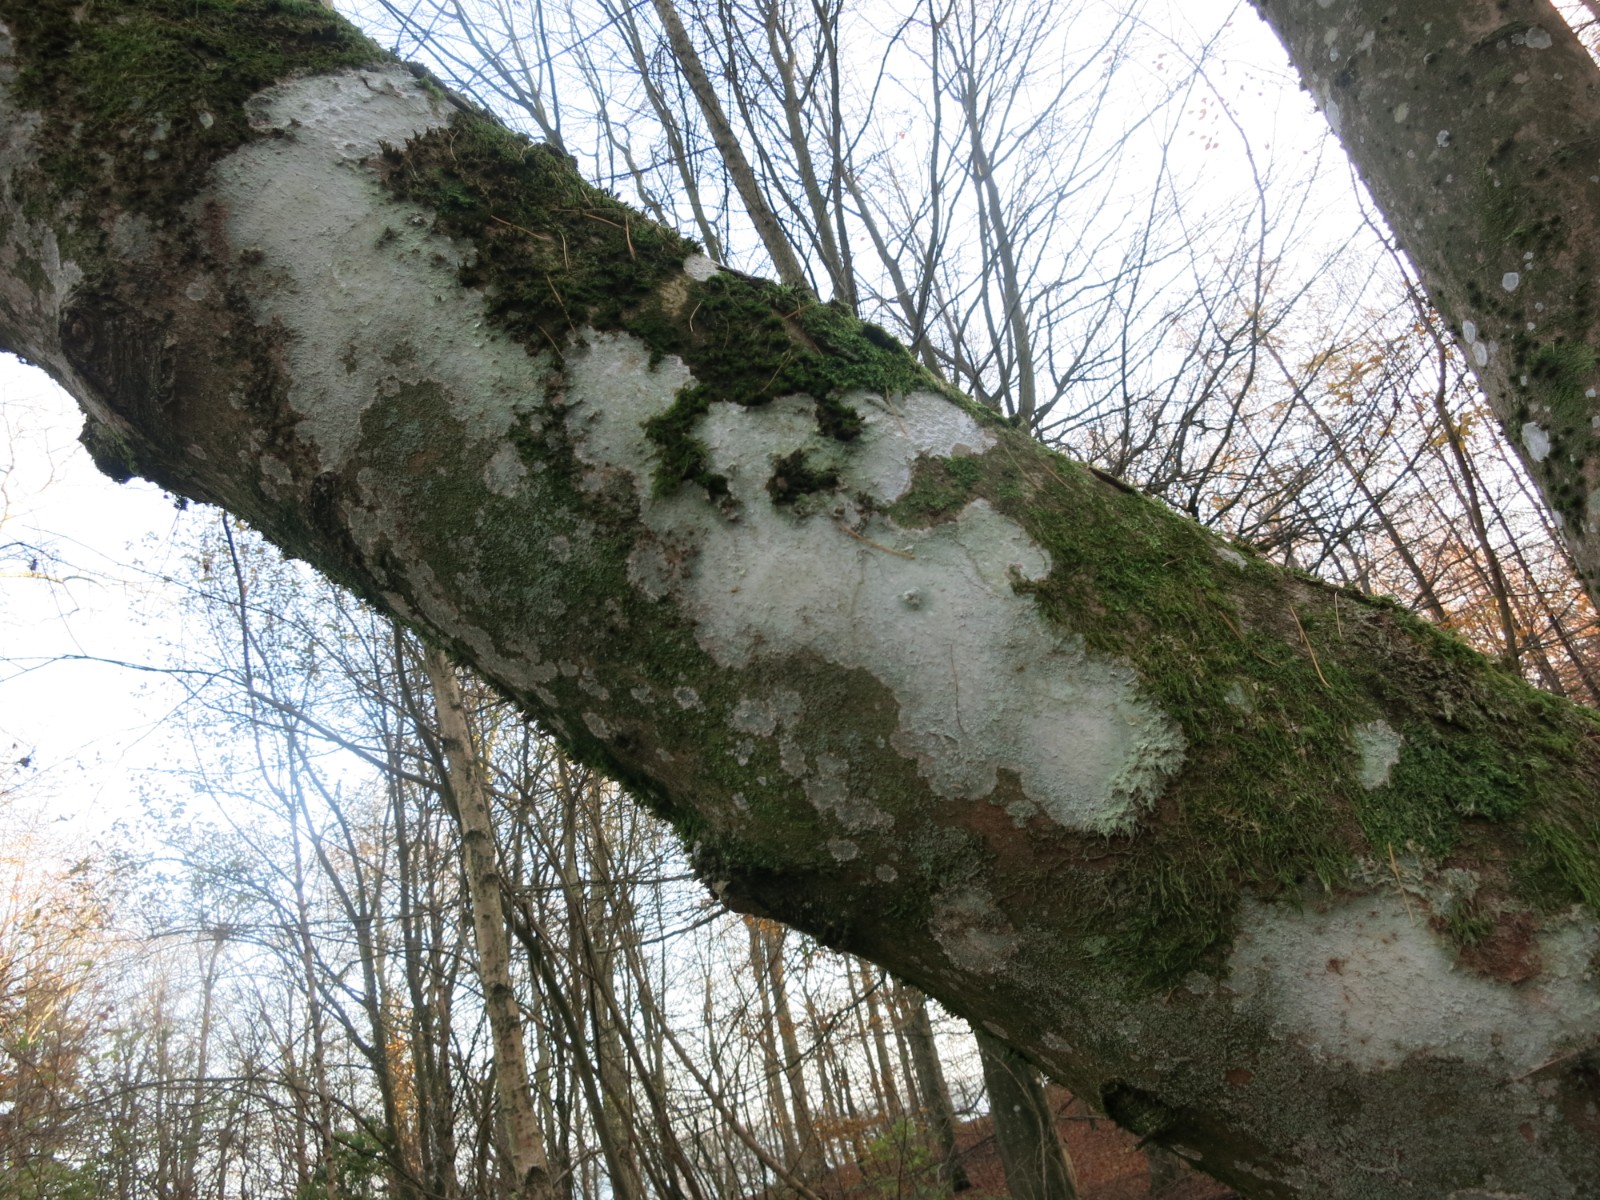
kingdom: Fungi
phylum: Ascomycota
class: Lecanoromycetes
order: Ostropales
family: Phlyctidaceae
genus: Phlyctis
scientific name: Phlyctis argena
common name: almindelig sølvlav
